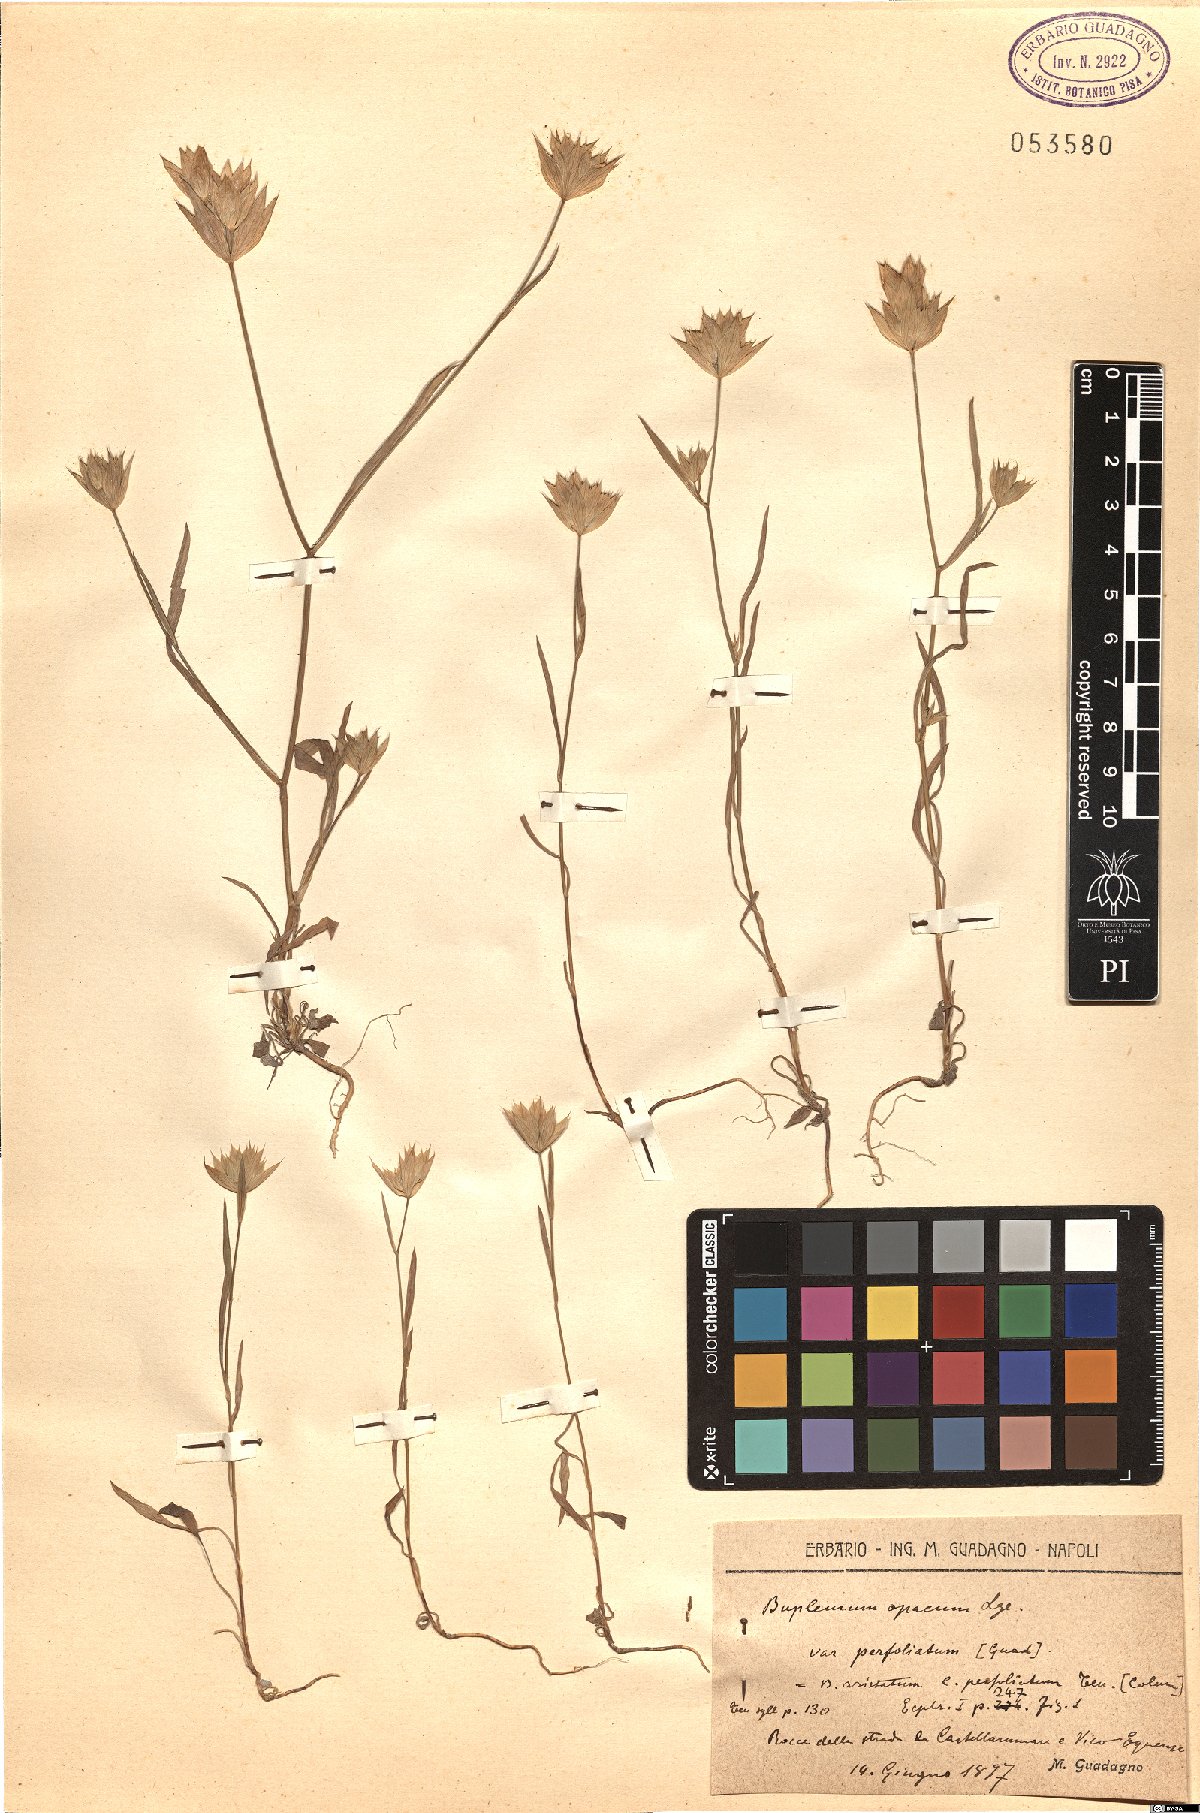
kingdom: Plantae
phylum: Tracheophyta
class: Magnoliopsida
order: Apiales
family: Apiaceae
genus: Bupleurum
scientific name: Bupleurum baldense
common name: Small hare's-ear
